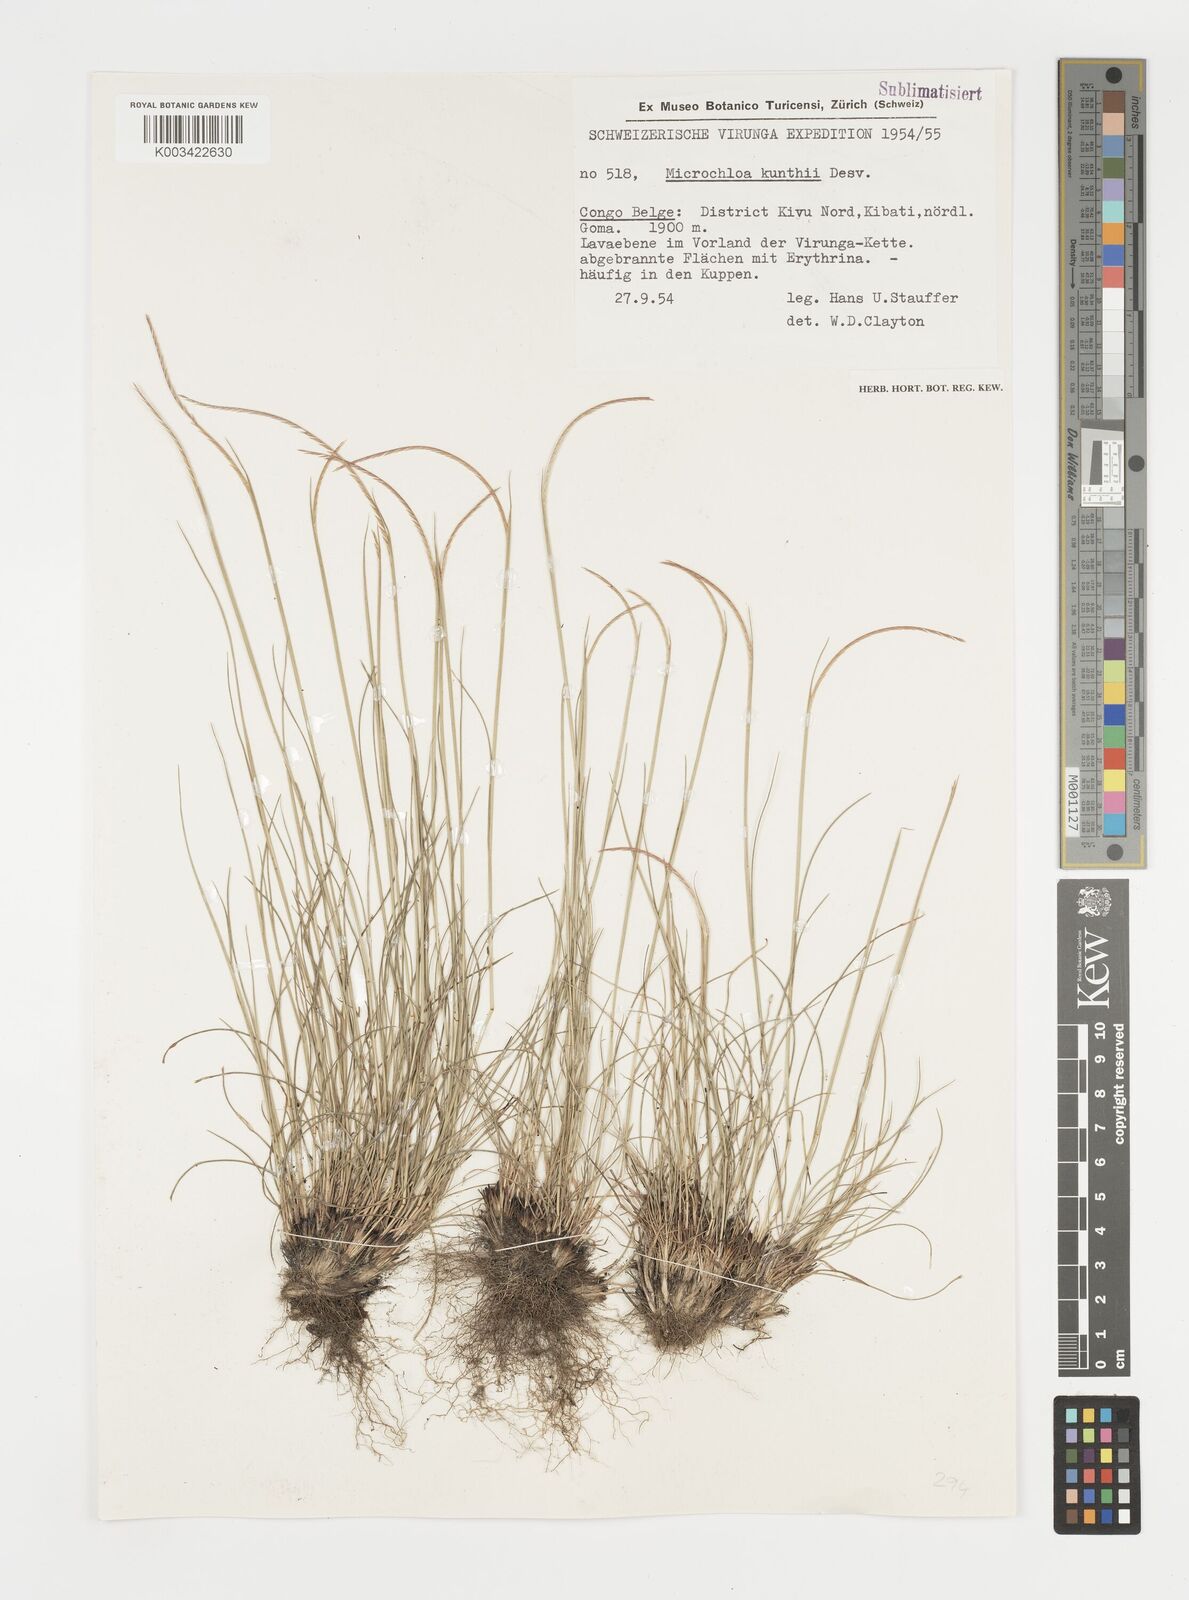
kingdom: Plantae
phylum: Tracheophyta
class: Liliopsida
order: Poales
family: Poaceae
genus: Microchloa
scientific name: Microchloa kunthii
